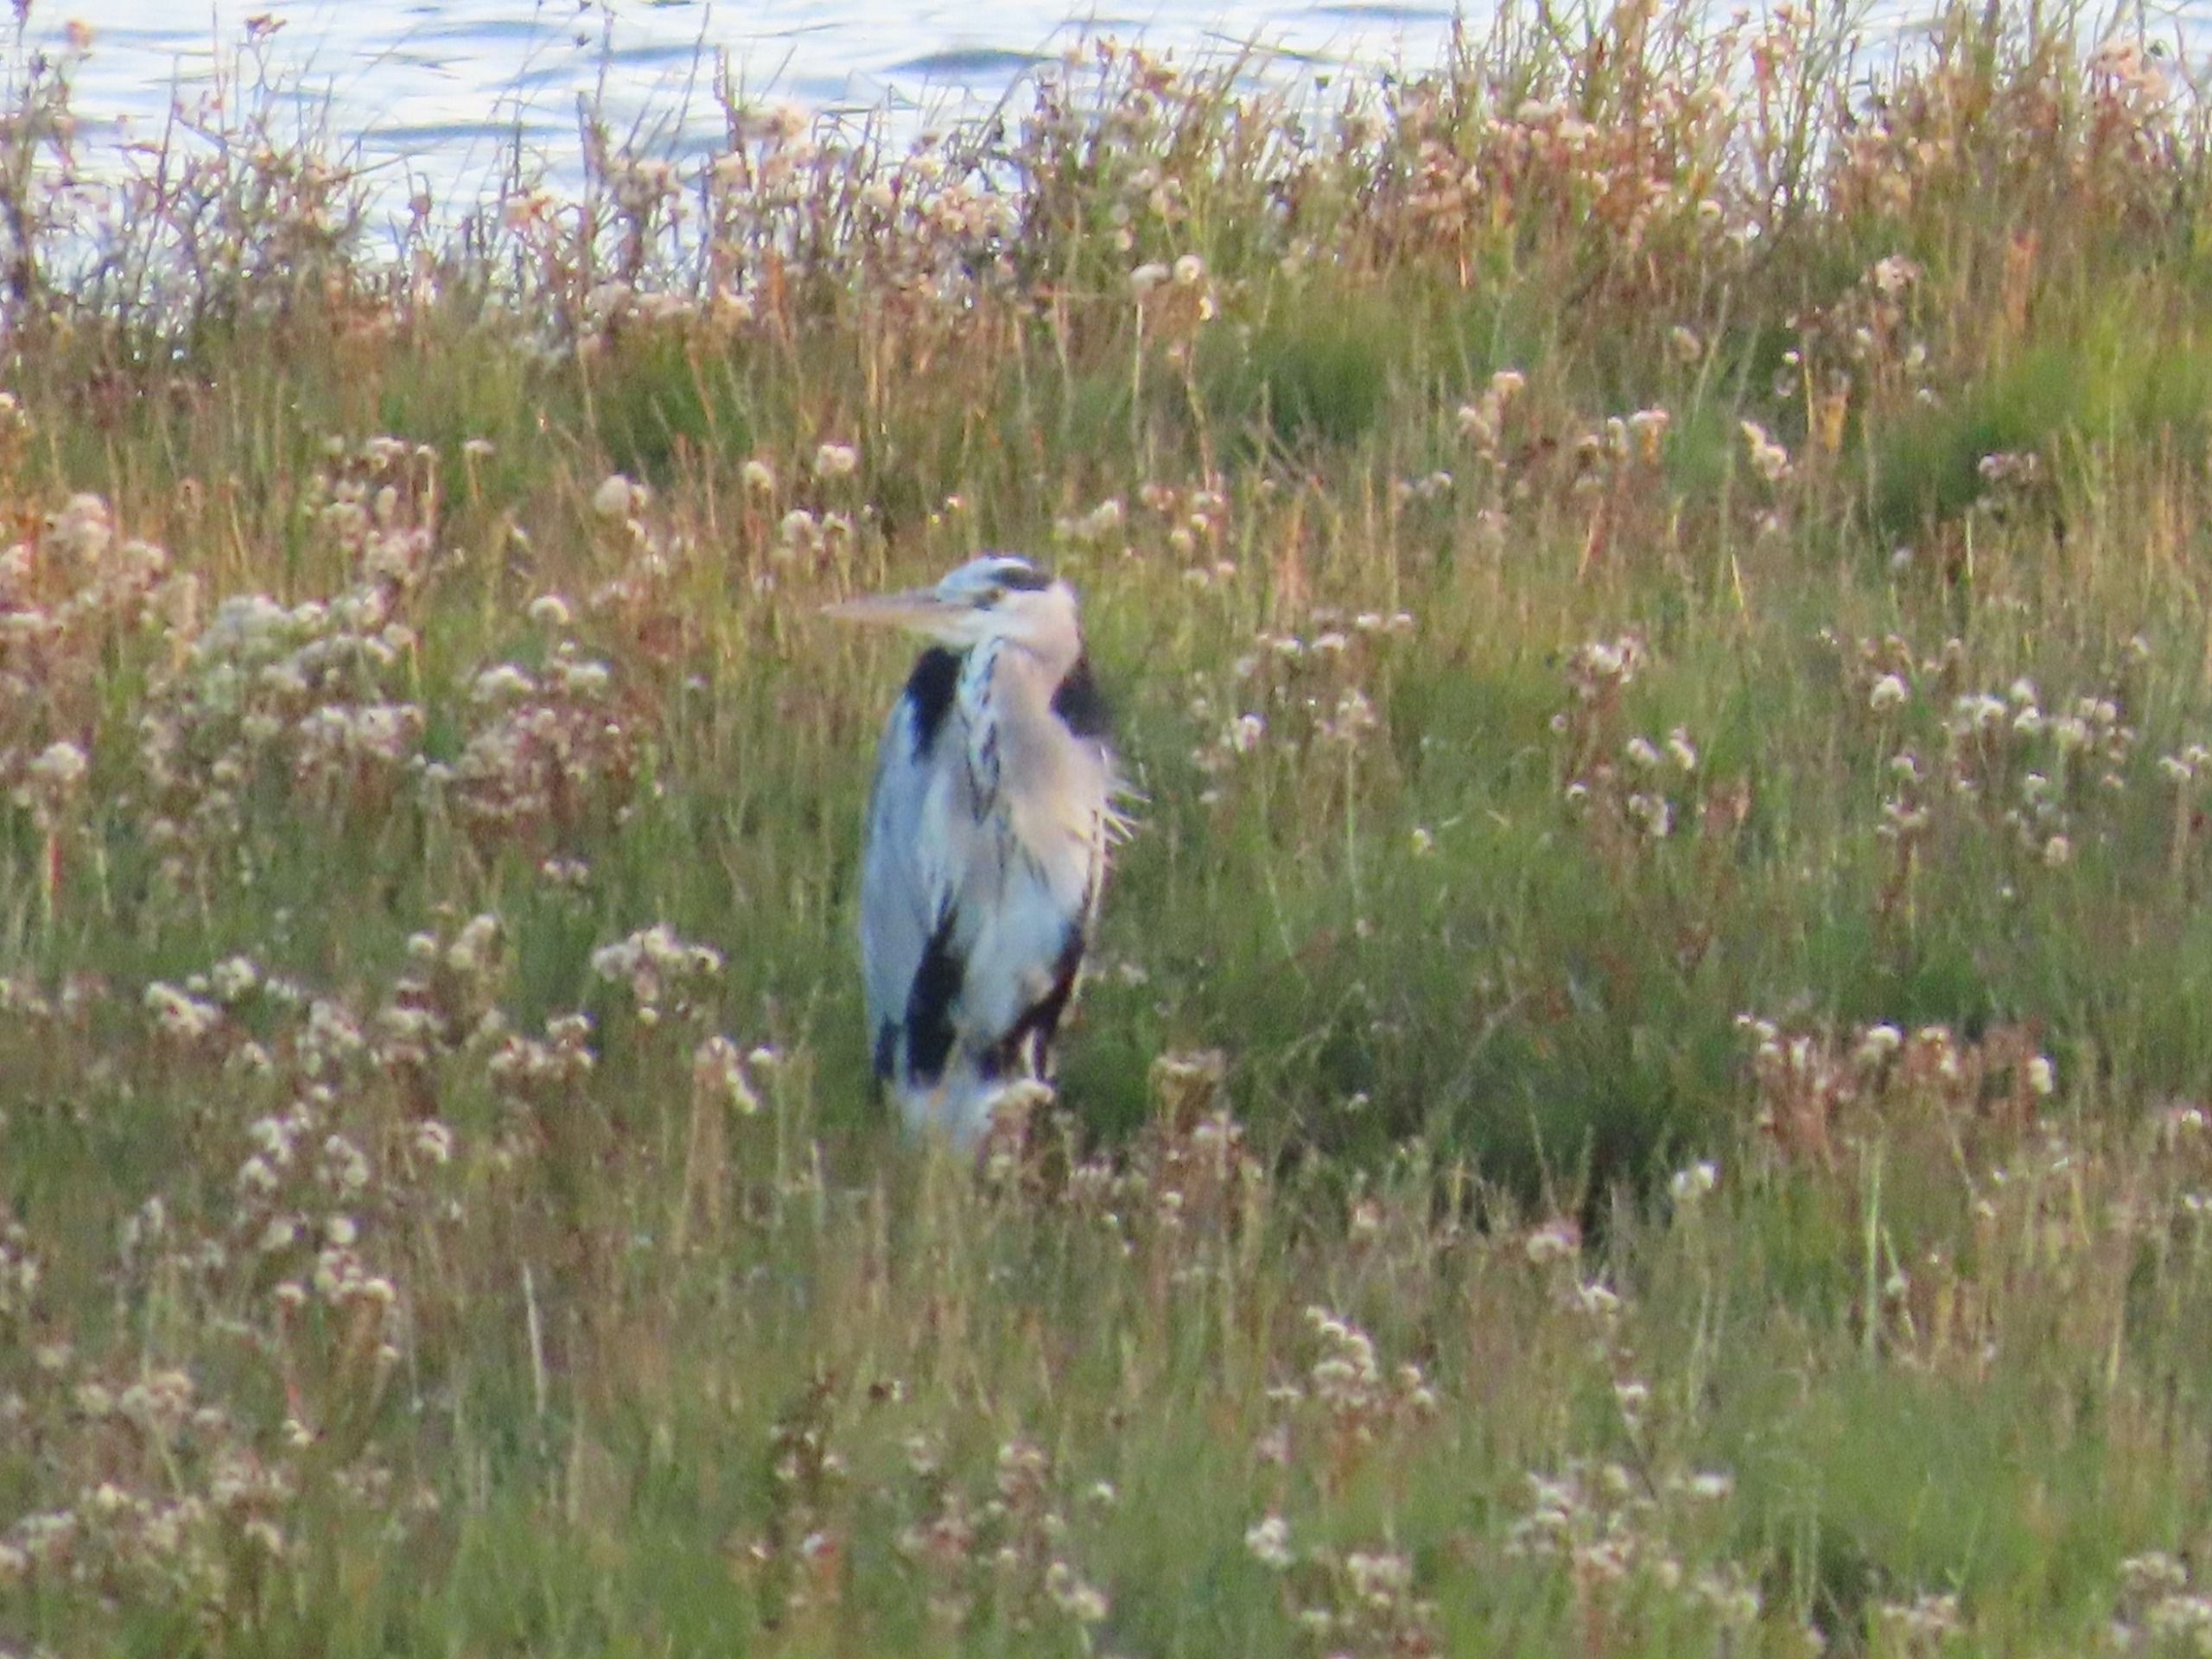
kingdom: Animalia
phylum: Chordata
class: Aves
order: Pelecaniformes
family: Ardeidae
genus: Ardea
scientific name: Ardea cinerea
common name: Fiskehejre
